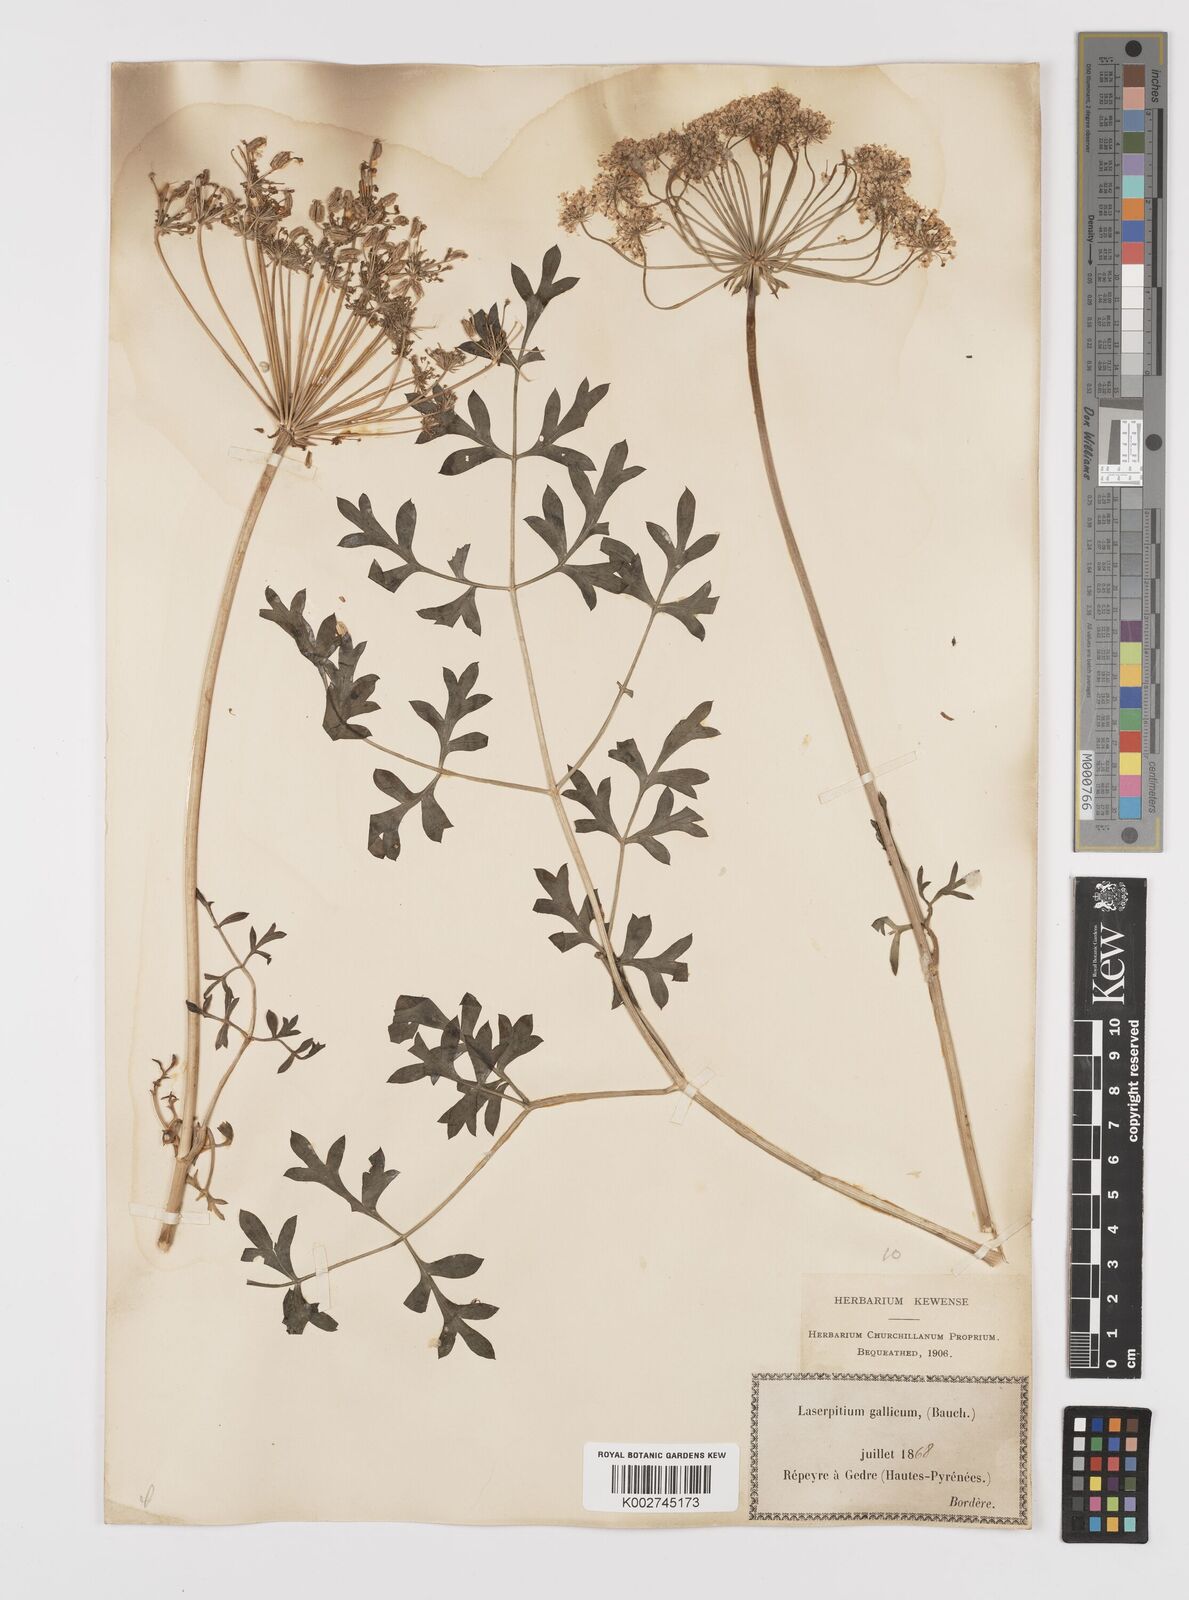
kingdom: Plantae
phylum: Tracheophyta
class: Magnoliopsida
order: Apiales
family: Apiaceae
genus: Laserpitium
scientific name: Laserpitium gallicum
